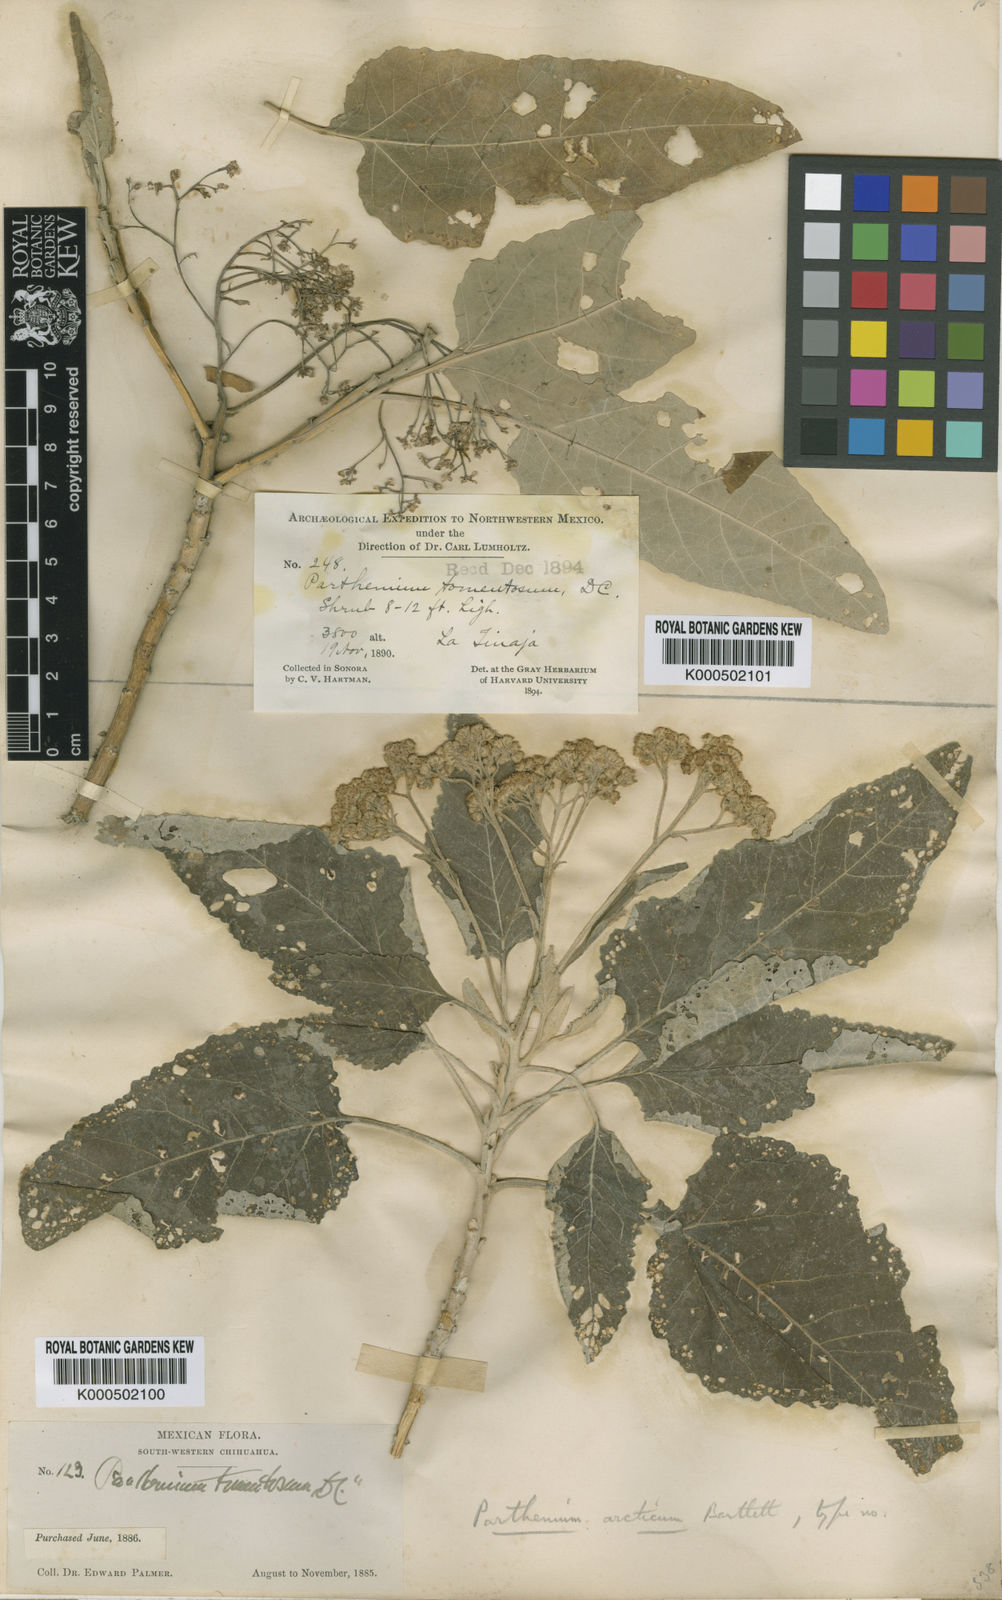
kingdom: Plantae
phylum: Tracheophyta
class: Magnoliopsida
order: Asterales
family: Asteraceae
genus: Parthenium
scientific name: Parthenium arctium
